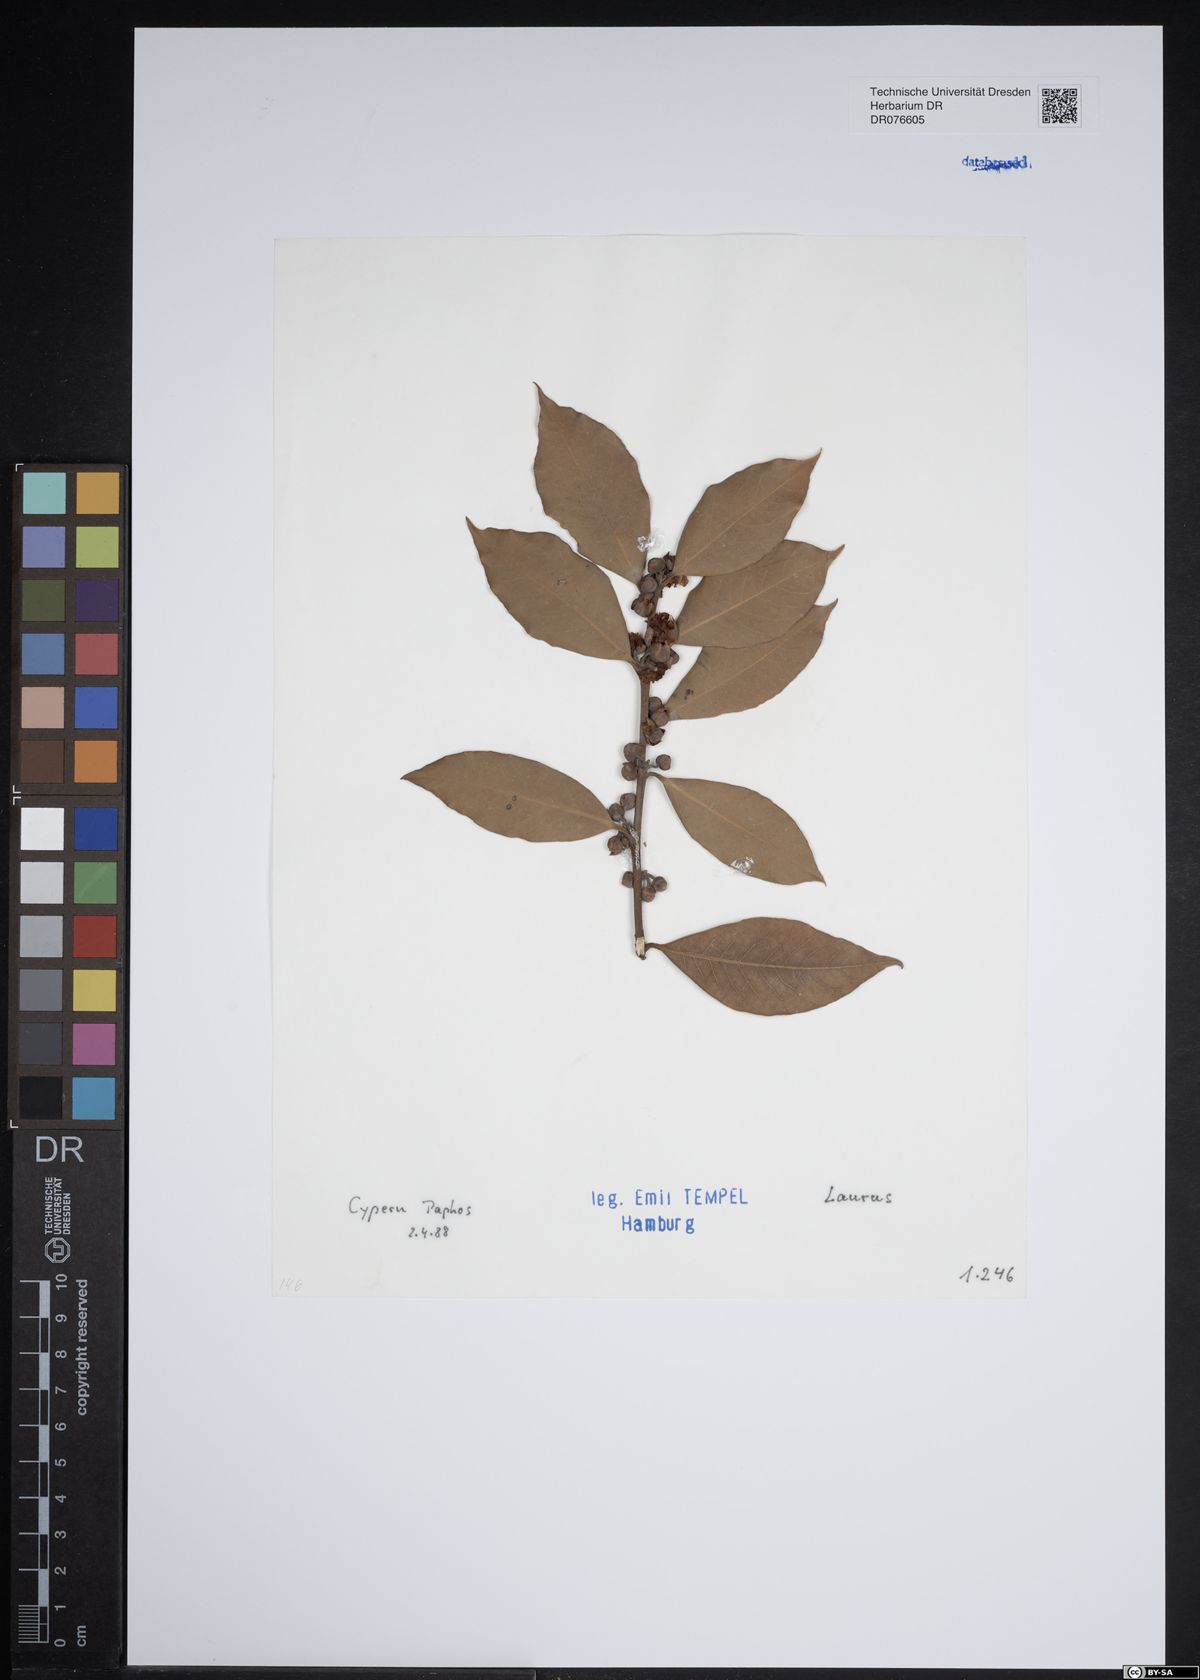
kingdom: Plantae
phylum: Tracheophyta
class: Magnoliopsida
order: Laurales
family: Lauraceae
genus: Laurus
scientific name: Laurus
